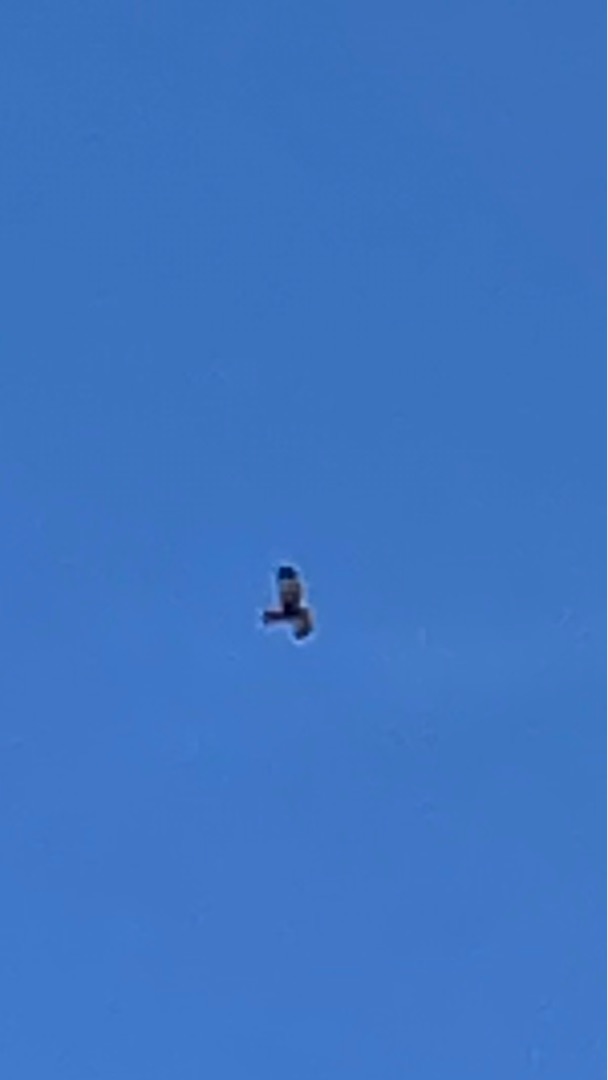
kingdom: Animalia
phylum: Chordata
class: Aves
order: Accipitriformes
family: Accipitridae
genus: Circus
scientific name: Circus aeruginosus
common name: Rørhøg
